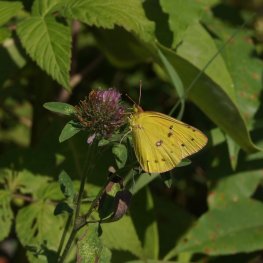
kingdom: Animalia
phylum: Arthropoda
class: Insecta
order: Lepidoptera
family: Pieridae
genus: Colias
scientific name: Colias eurytheme
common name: Orange Sulphur
